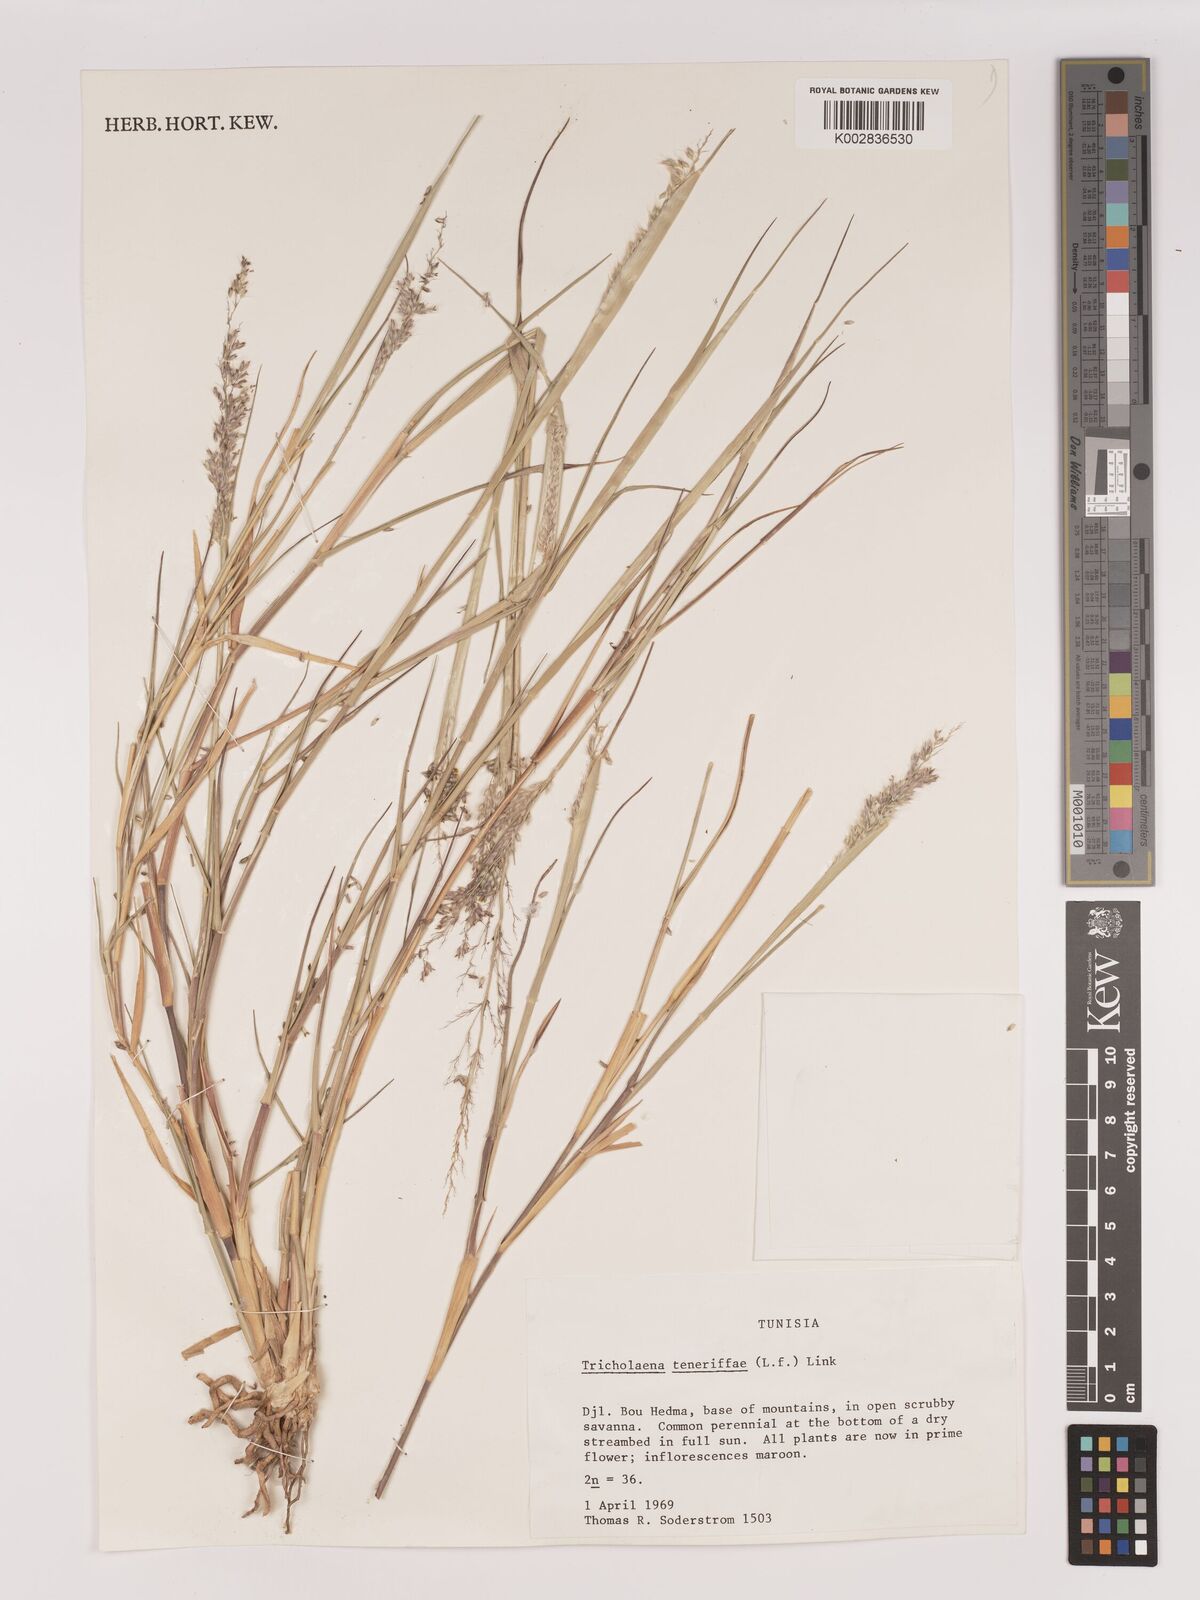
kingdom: Plantae
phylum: Tracheophyta
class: Liliopsida
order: Poales
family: Poaceae
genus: Tricholaena
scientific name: Tricholaena teneriffae
